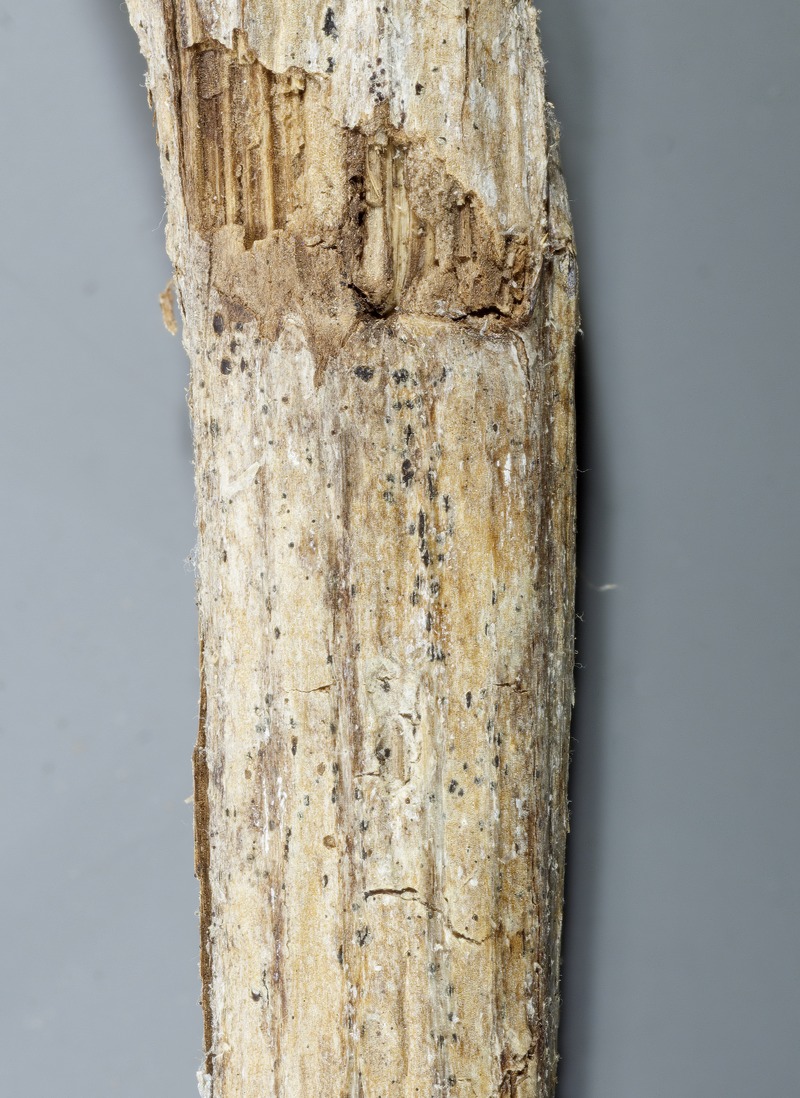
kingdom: Fungi
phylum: Ascomycota
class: Leotiomycetes
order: Helotiales
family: Ploettnerulaceae
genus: Pirottaea
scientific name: Pirottaea caesiella
